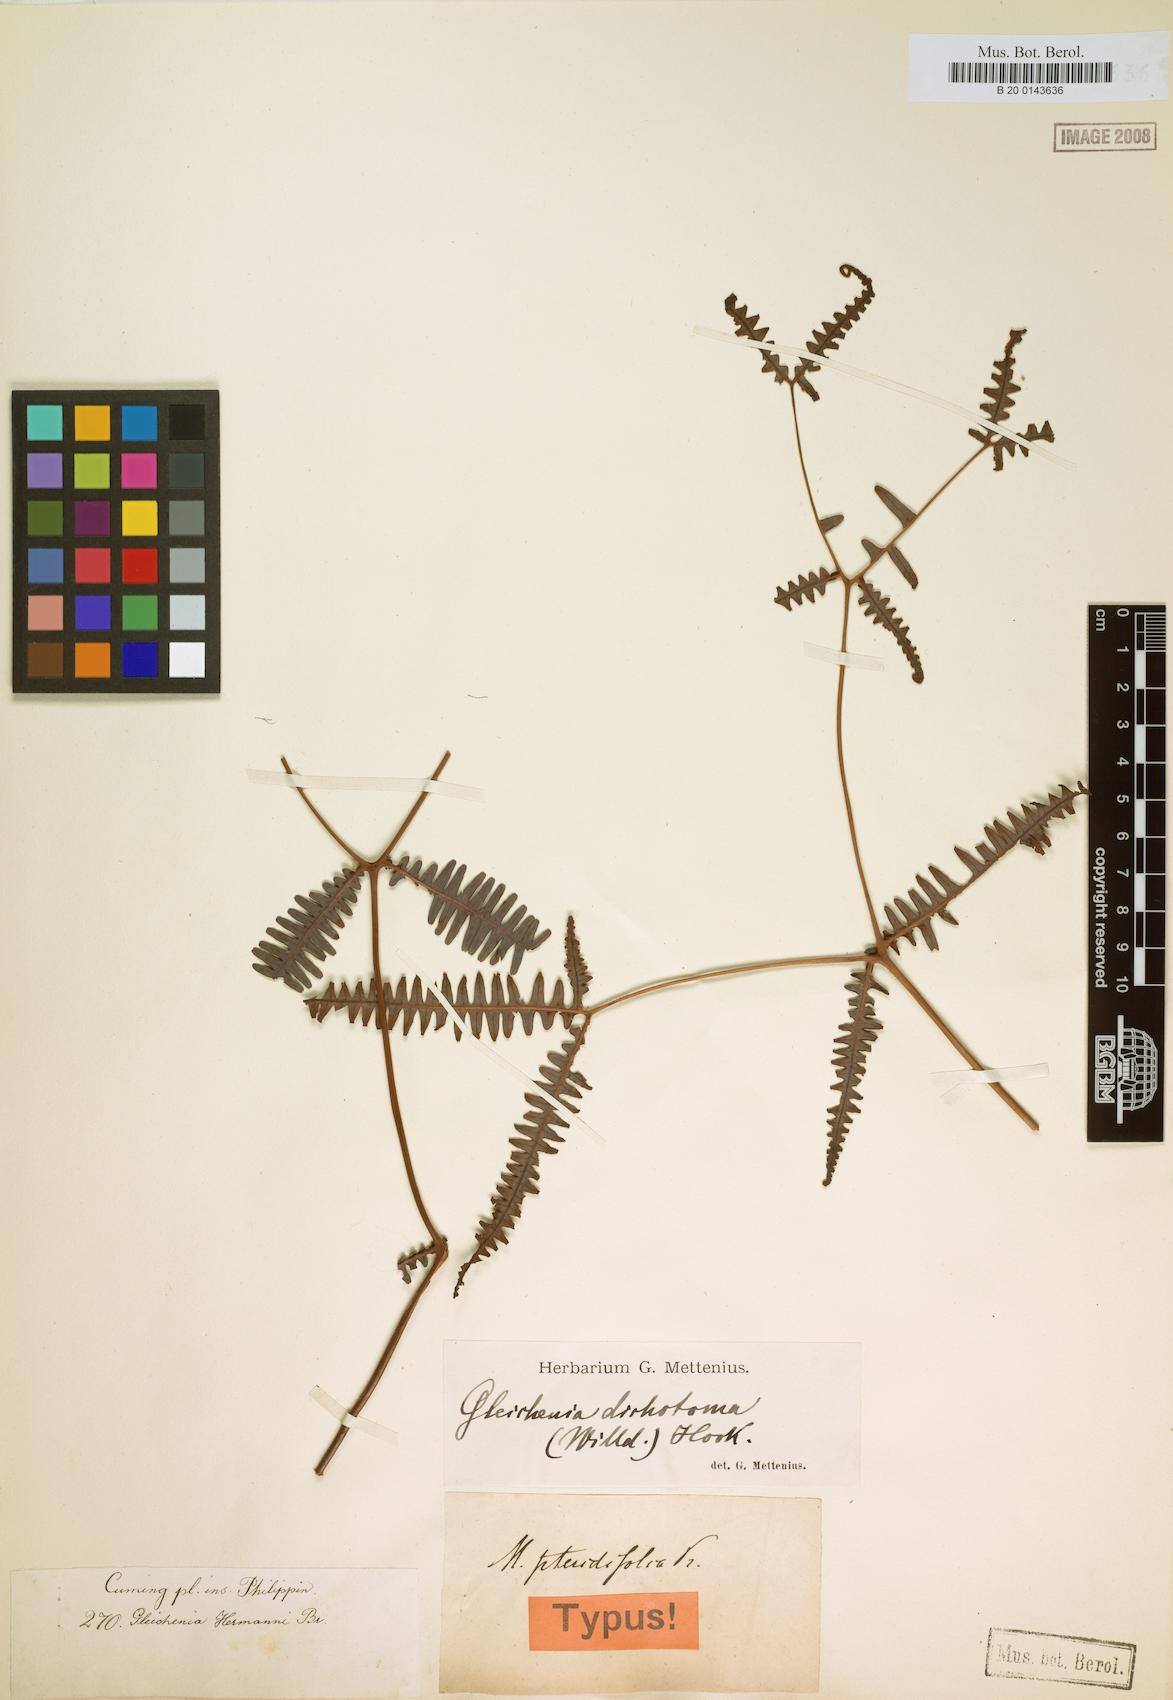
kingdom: Plantae
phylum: Tracheophyta
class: Polypodiopsida
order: Gleicheniales
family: Gleicheniaceae
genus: Dicranopteris
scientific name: Dicranopteris linearis
